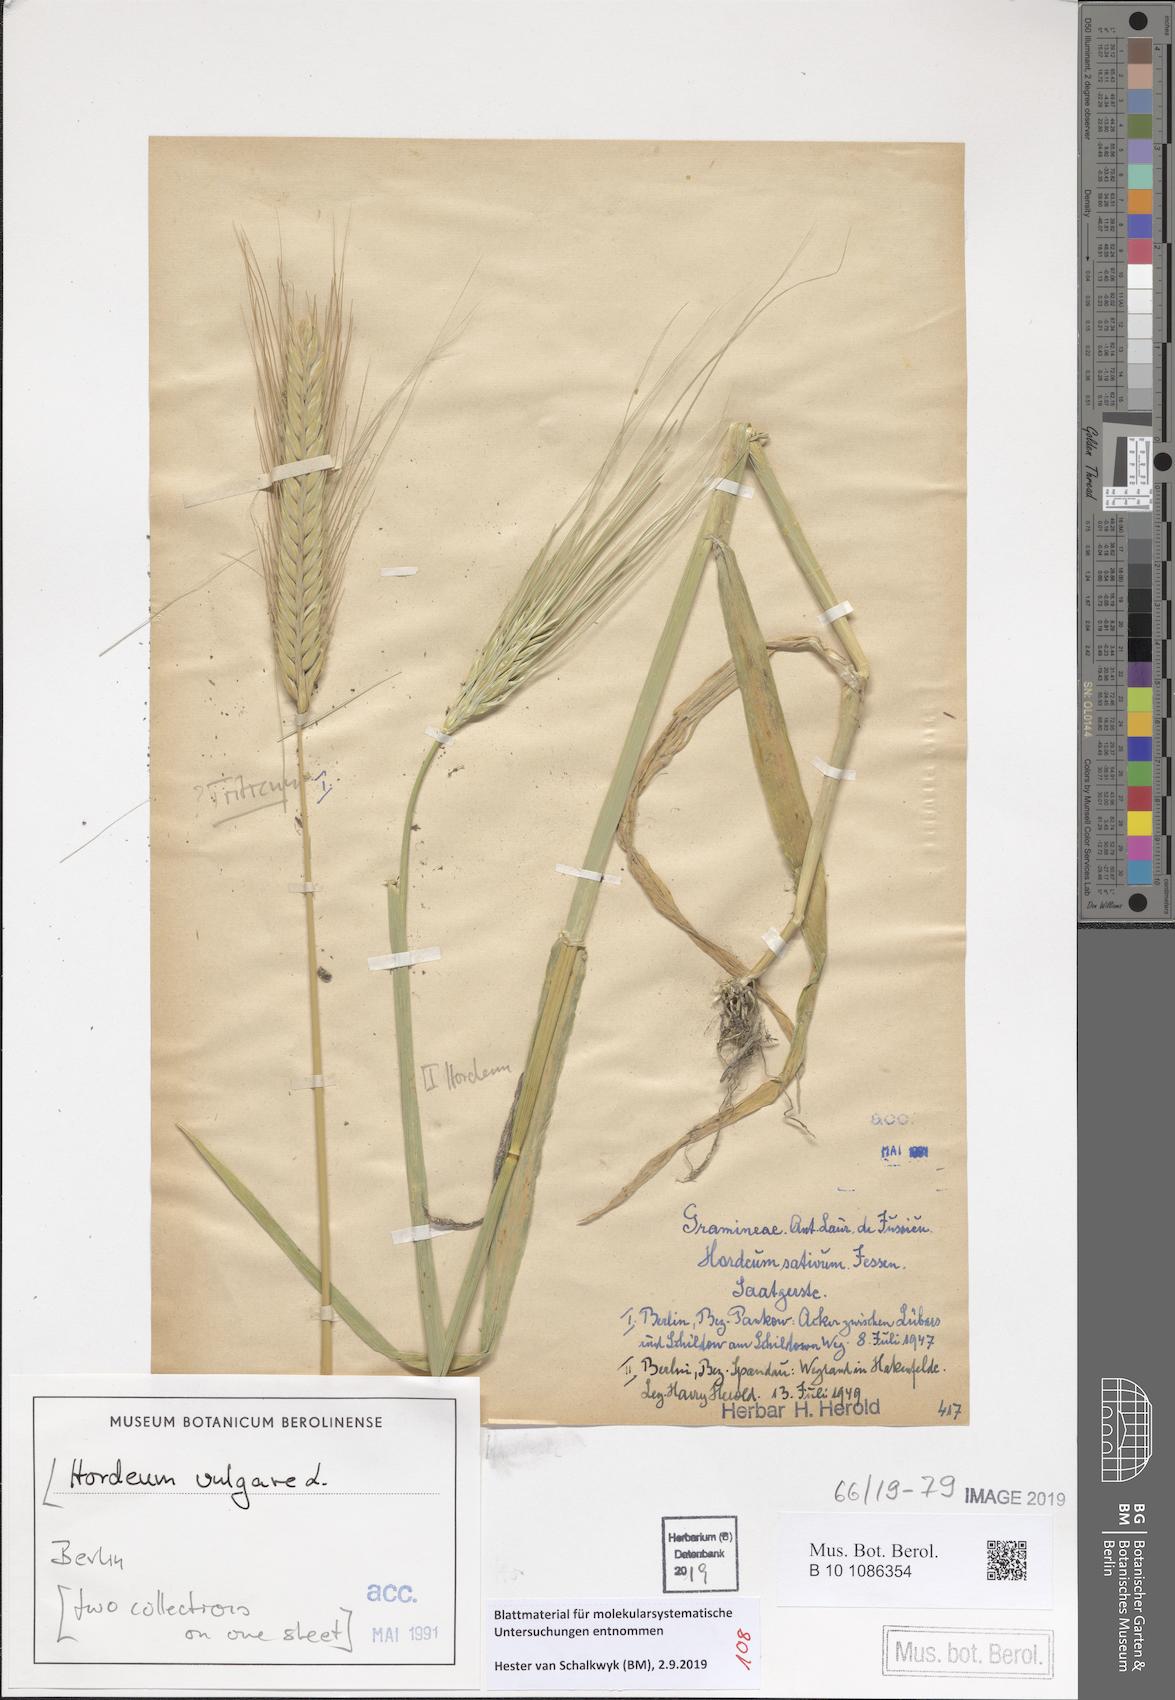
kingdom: Plantae
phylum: Tracheophyta
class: Liliopsida
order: Poales
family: Poaceae
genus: Hordeum
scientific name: Hordeum vulgare
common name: Common barley
